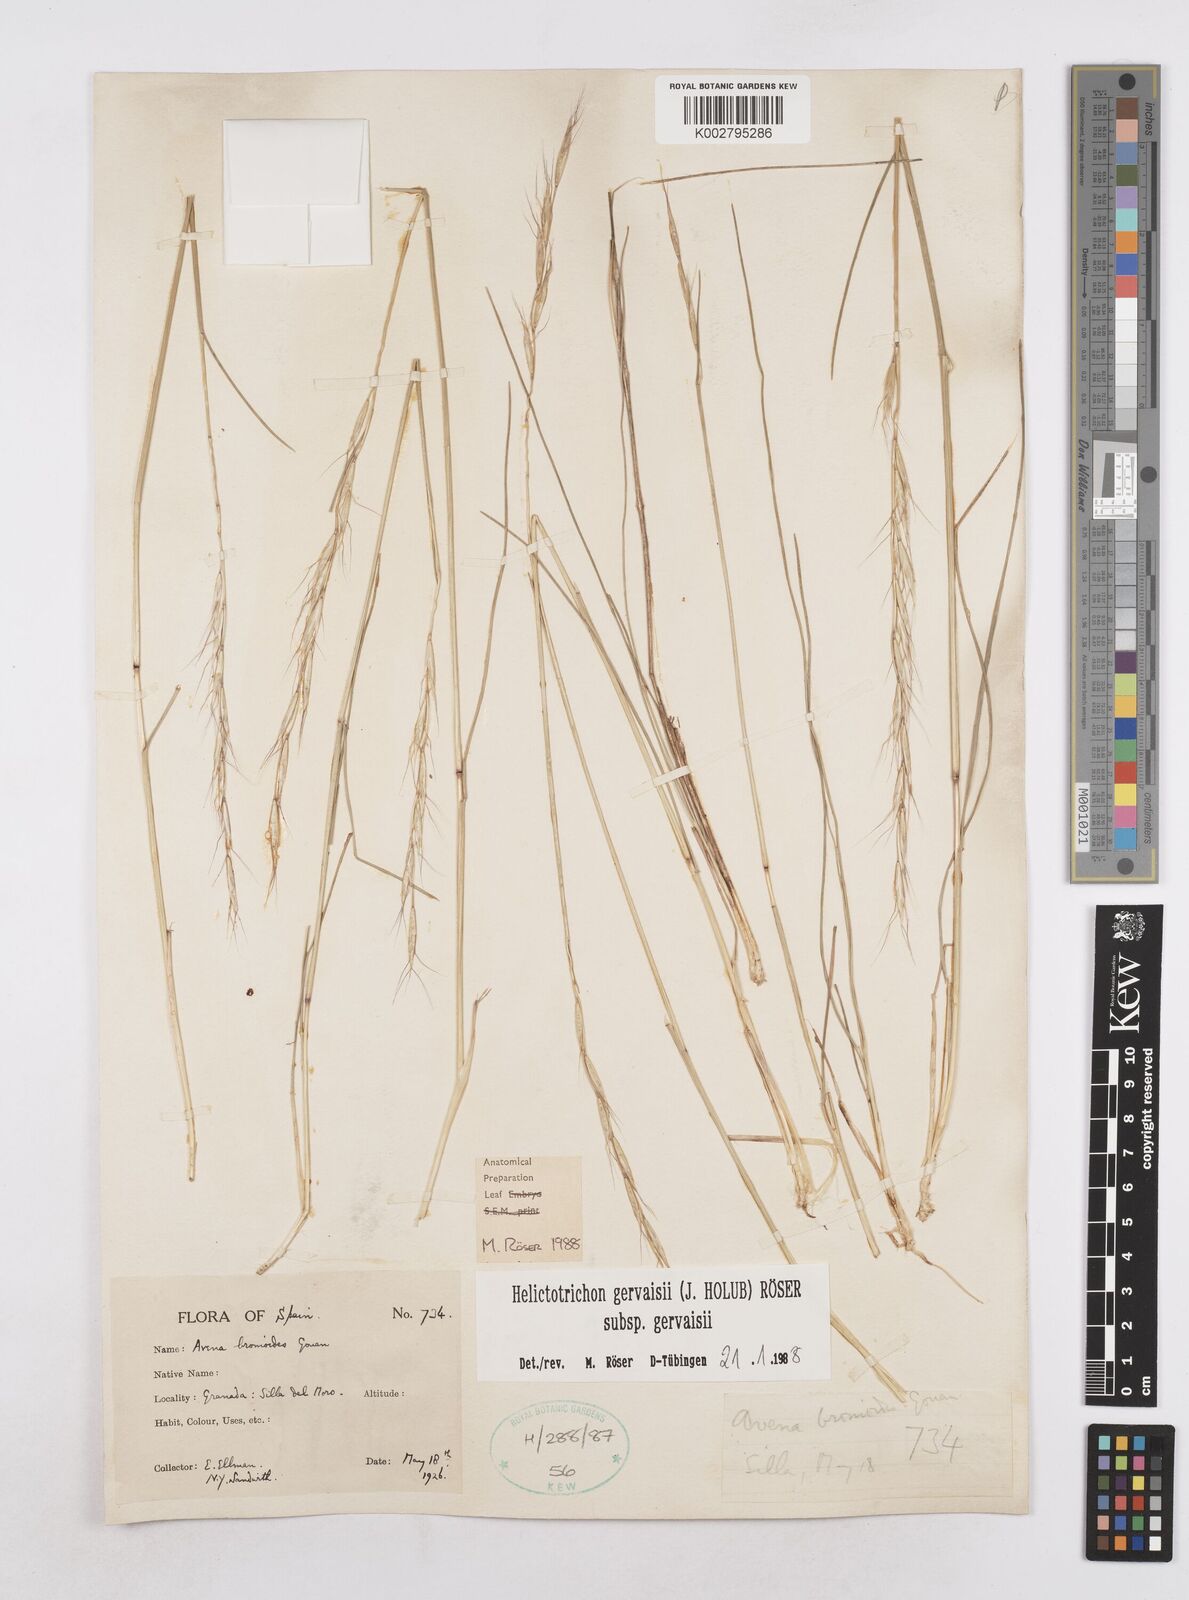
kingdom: Plantae
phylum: Tracheophyta
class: Liliopsida
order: Poales
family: Poaceae
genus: Helictochloa
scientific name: Helictochloa gervaisii
